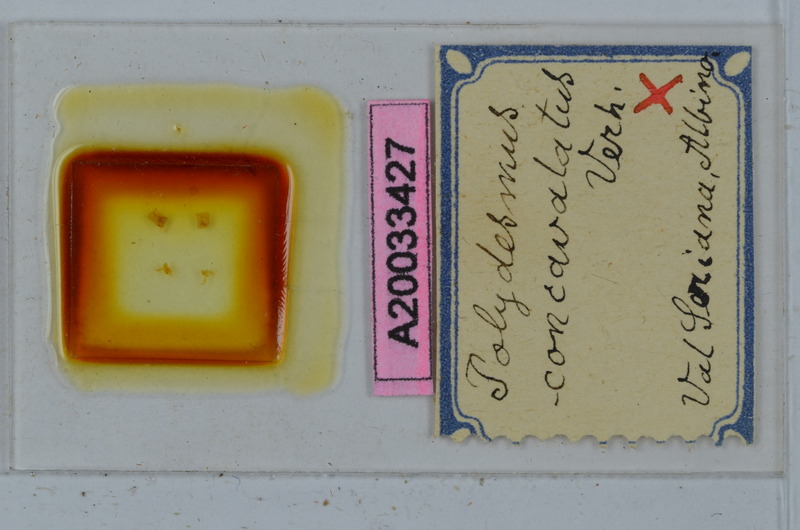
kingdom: Animalia
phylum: Arthropoda
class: Diplopoda
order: Polydesmida
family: Polydesmidae
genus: Polydesmus
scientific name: Polydesmus monticola
